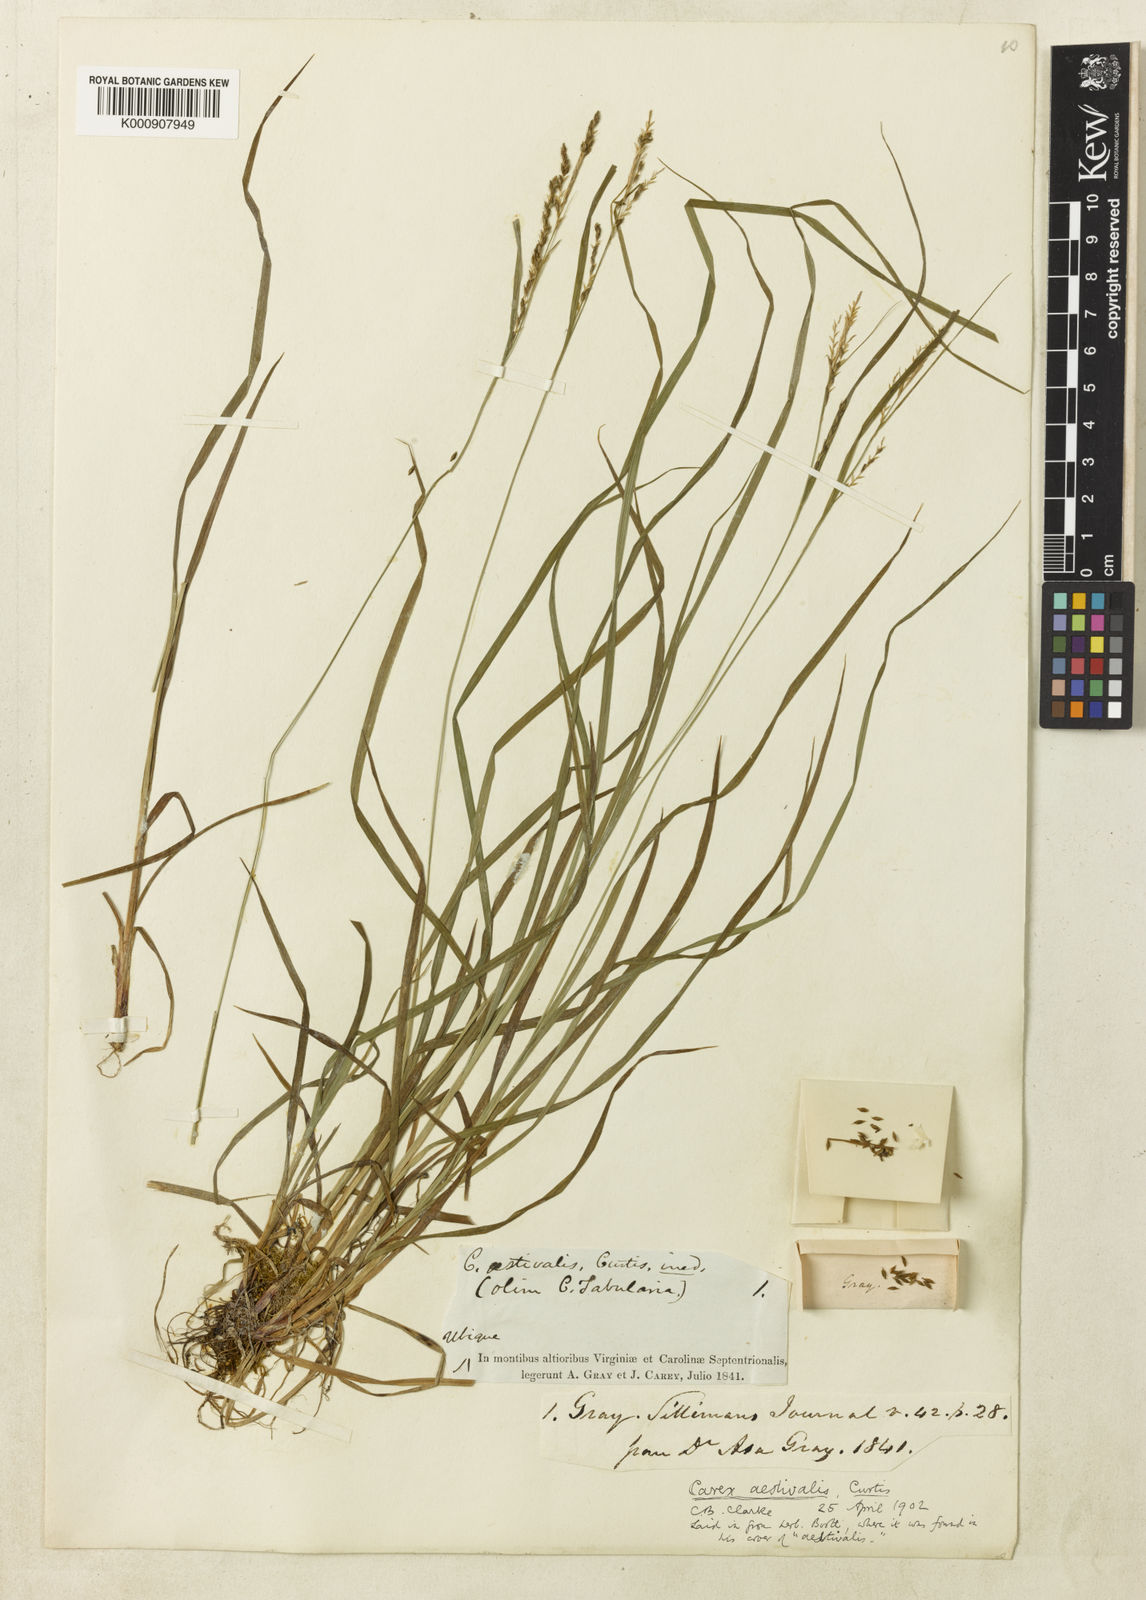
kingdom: Plantae
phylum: Tracheophyta
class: Liliopsida
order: Poales
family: Cyperaceae
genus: Carex
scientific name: Carex aestivalis
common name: Summer sedge
